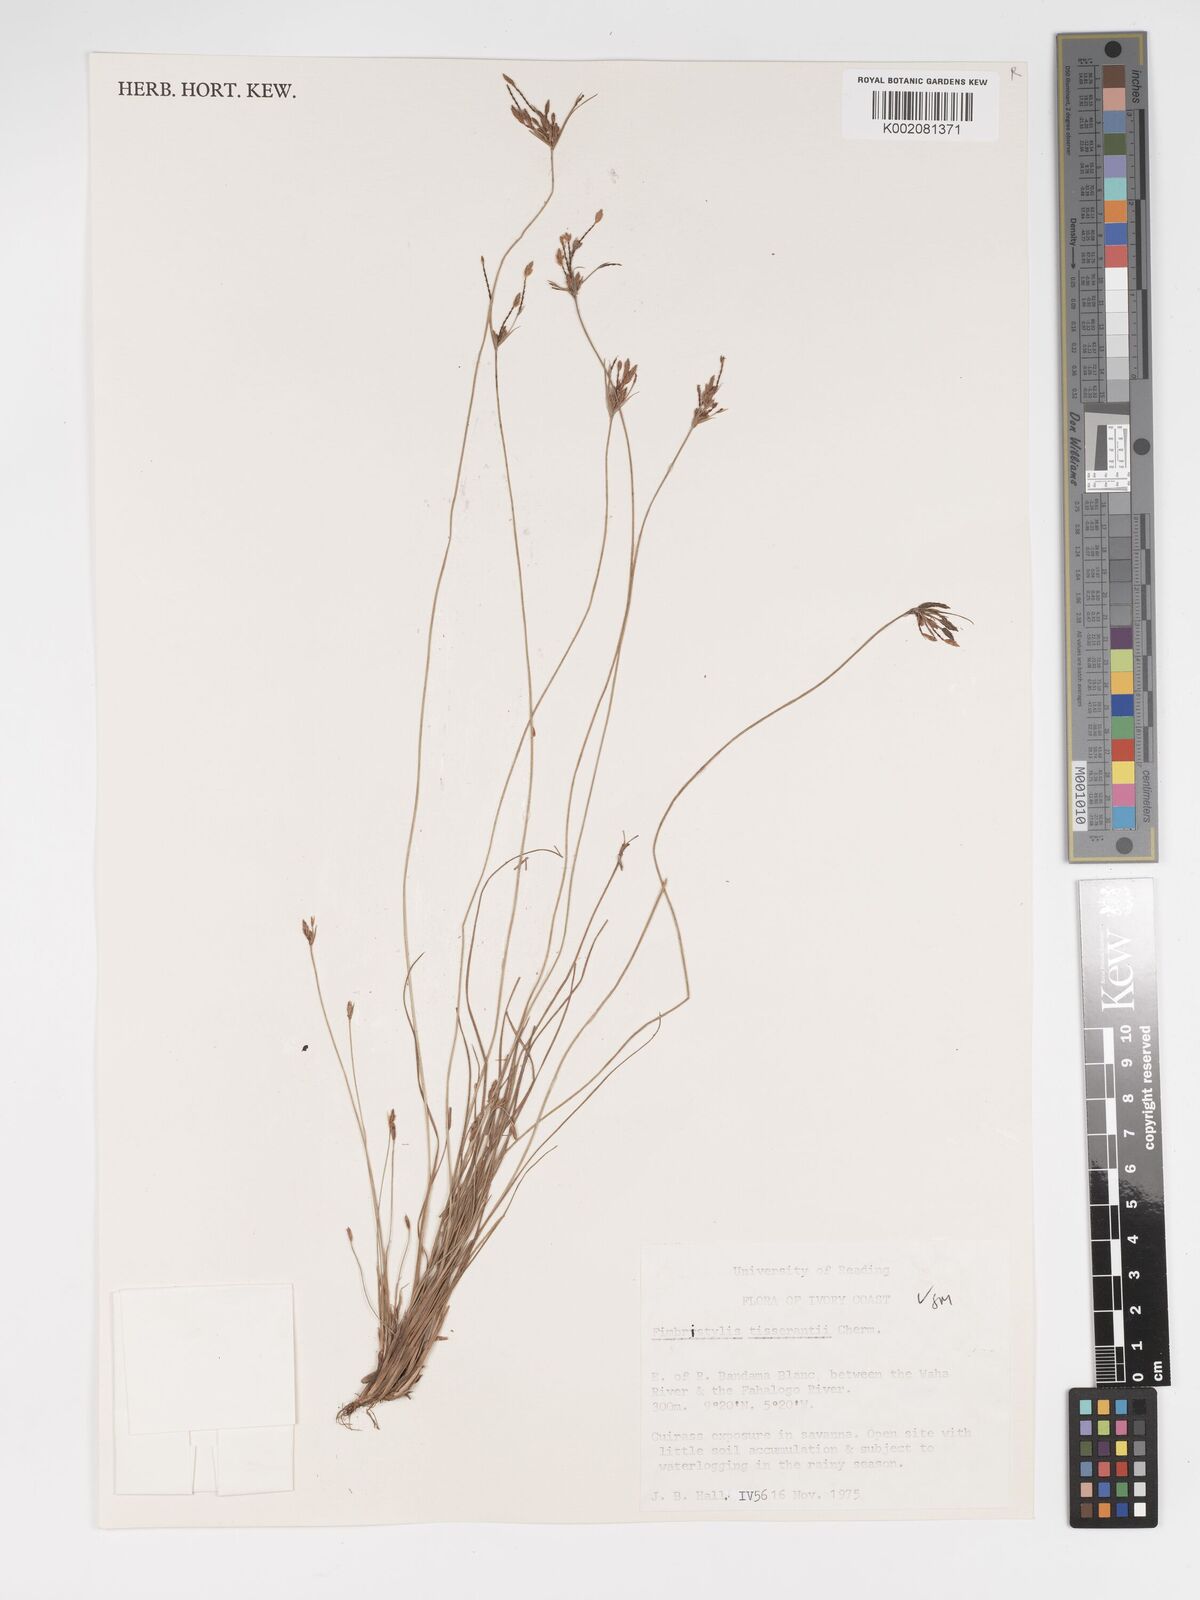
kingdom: Plantae
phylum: Tracheophyta
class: Liliopsida
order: Poales
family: Cyperaceae
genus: Bulbostylis
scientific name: Bulbostylis viridecarinata
